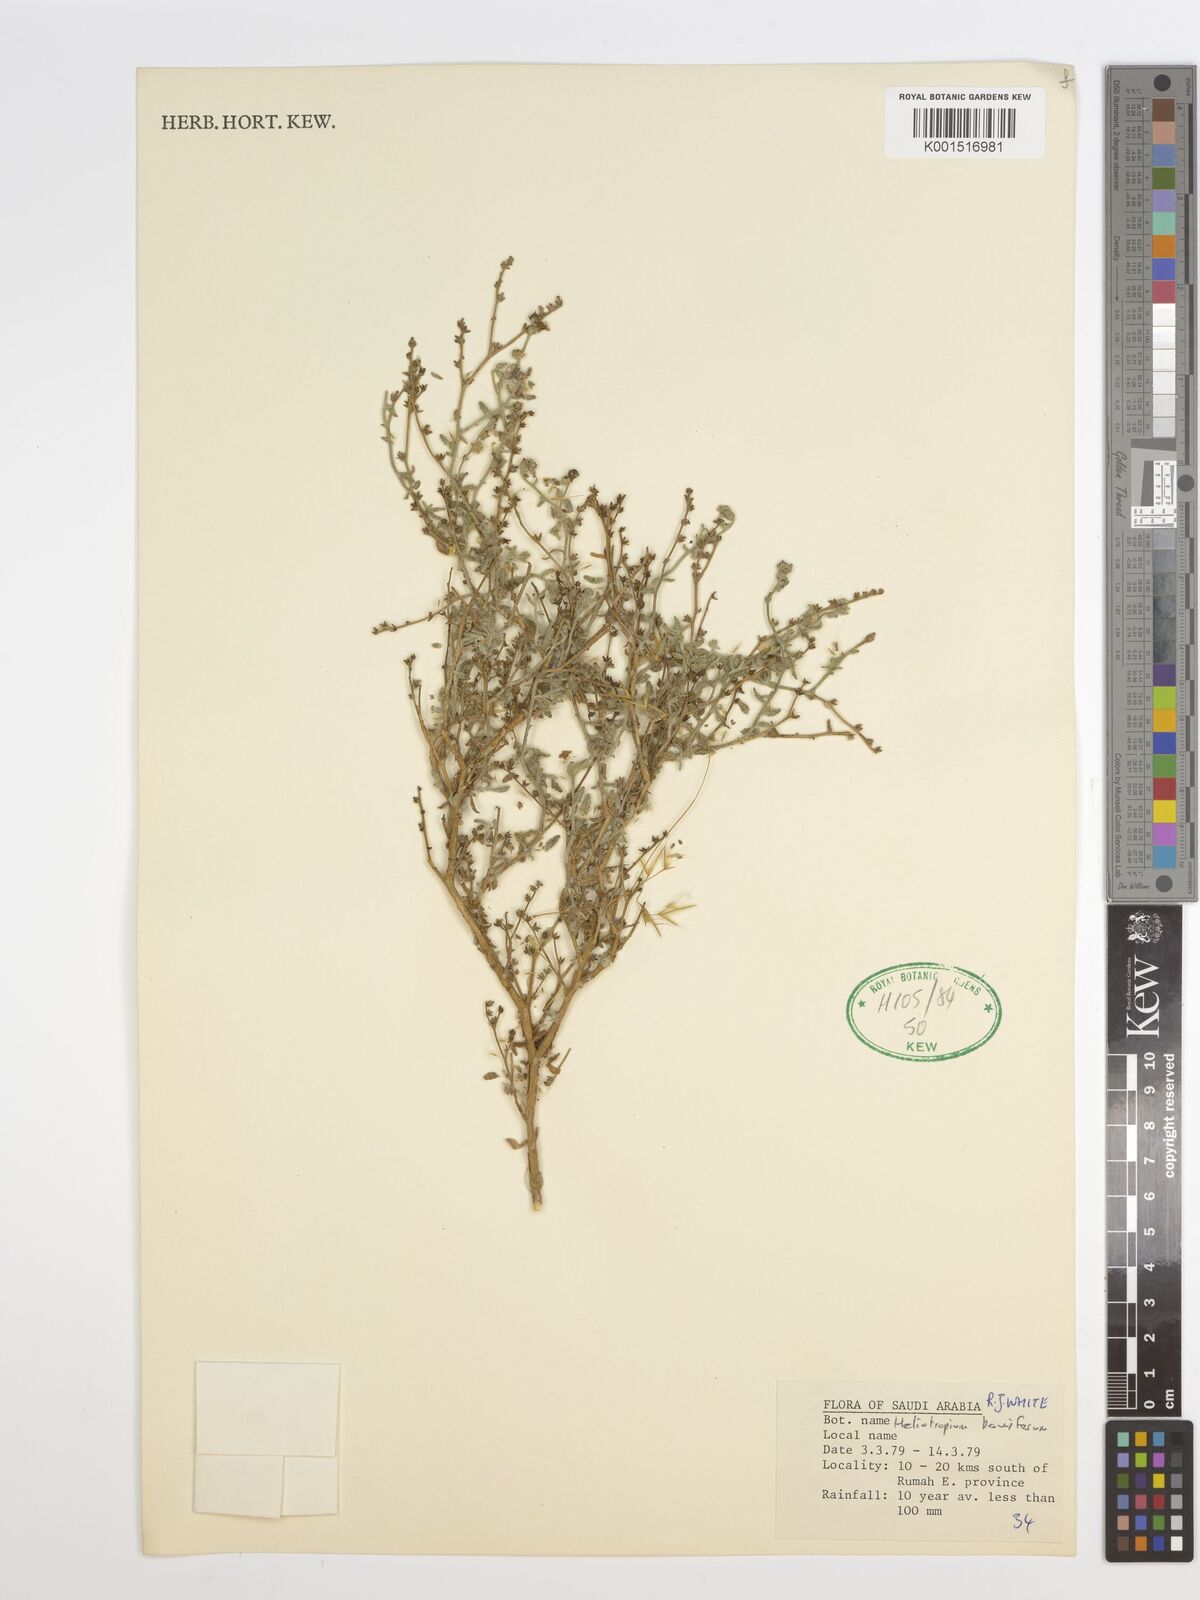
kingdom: Plantae
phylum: Tracheophyta
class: Magnoliopsida
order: Boraginales
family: Heliotropiaceae
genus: Heliotropium
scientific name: Heliotropium bacciferum
